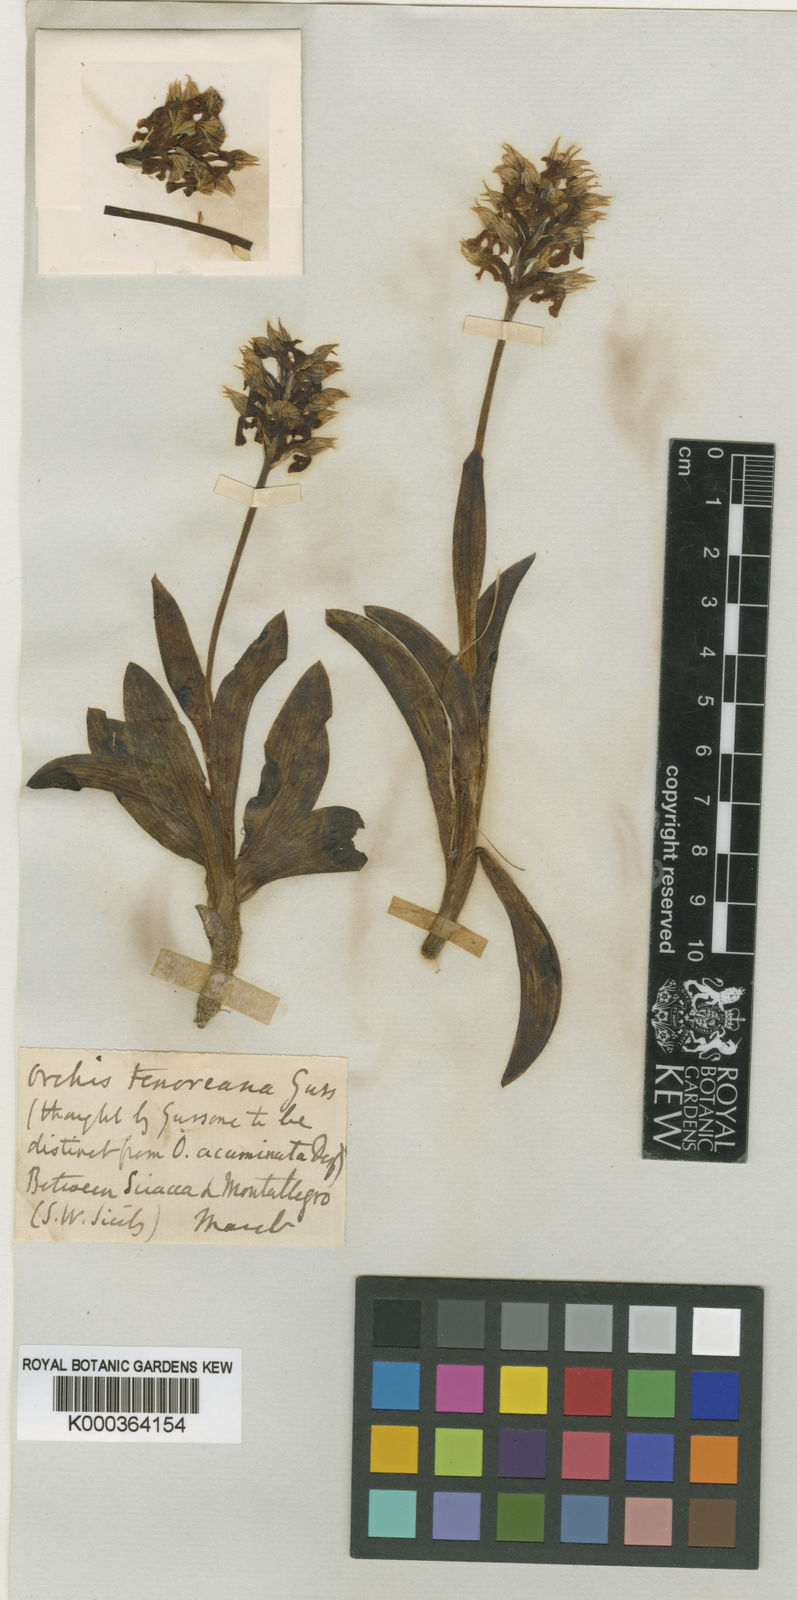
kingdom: Plantae
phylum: Tracheophyta
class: Liliopsida
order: Asparagales
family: Orchidaceae
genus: Neotinea
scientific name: Neotinea lactea
